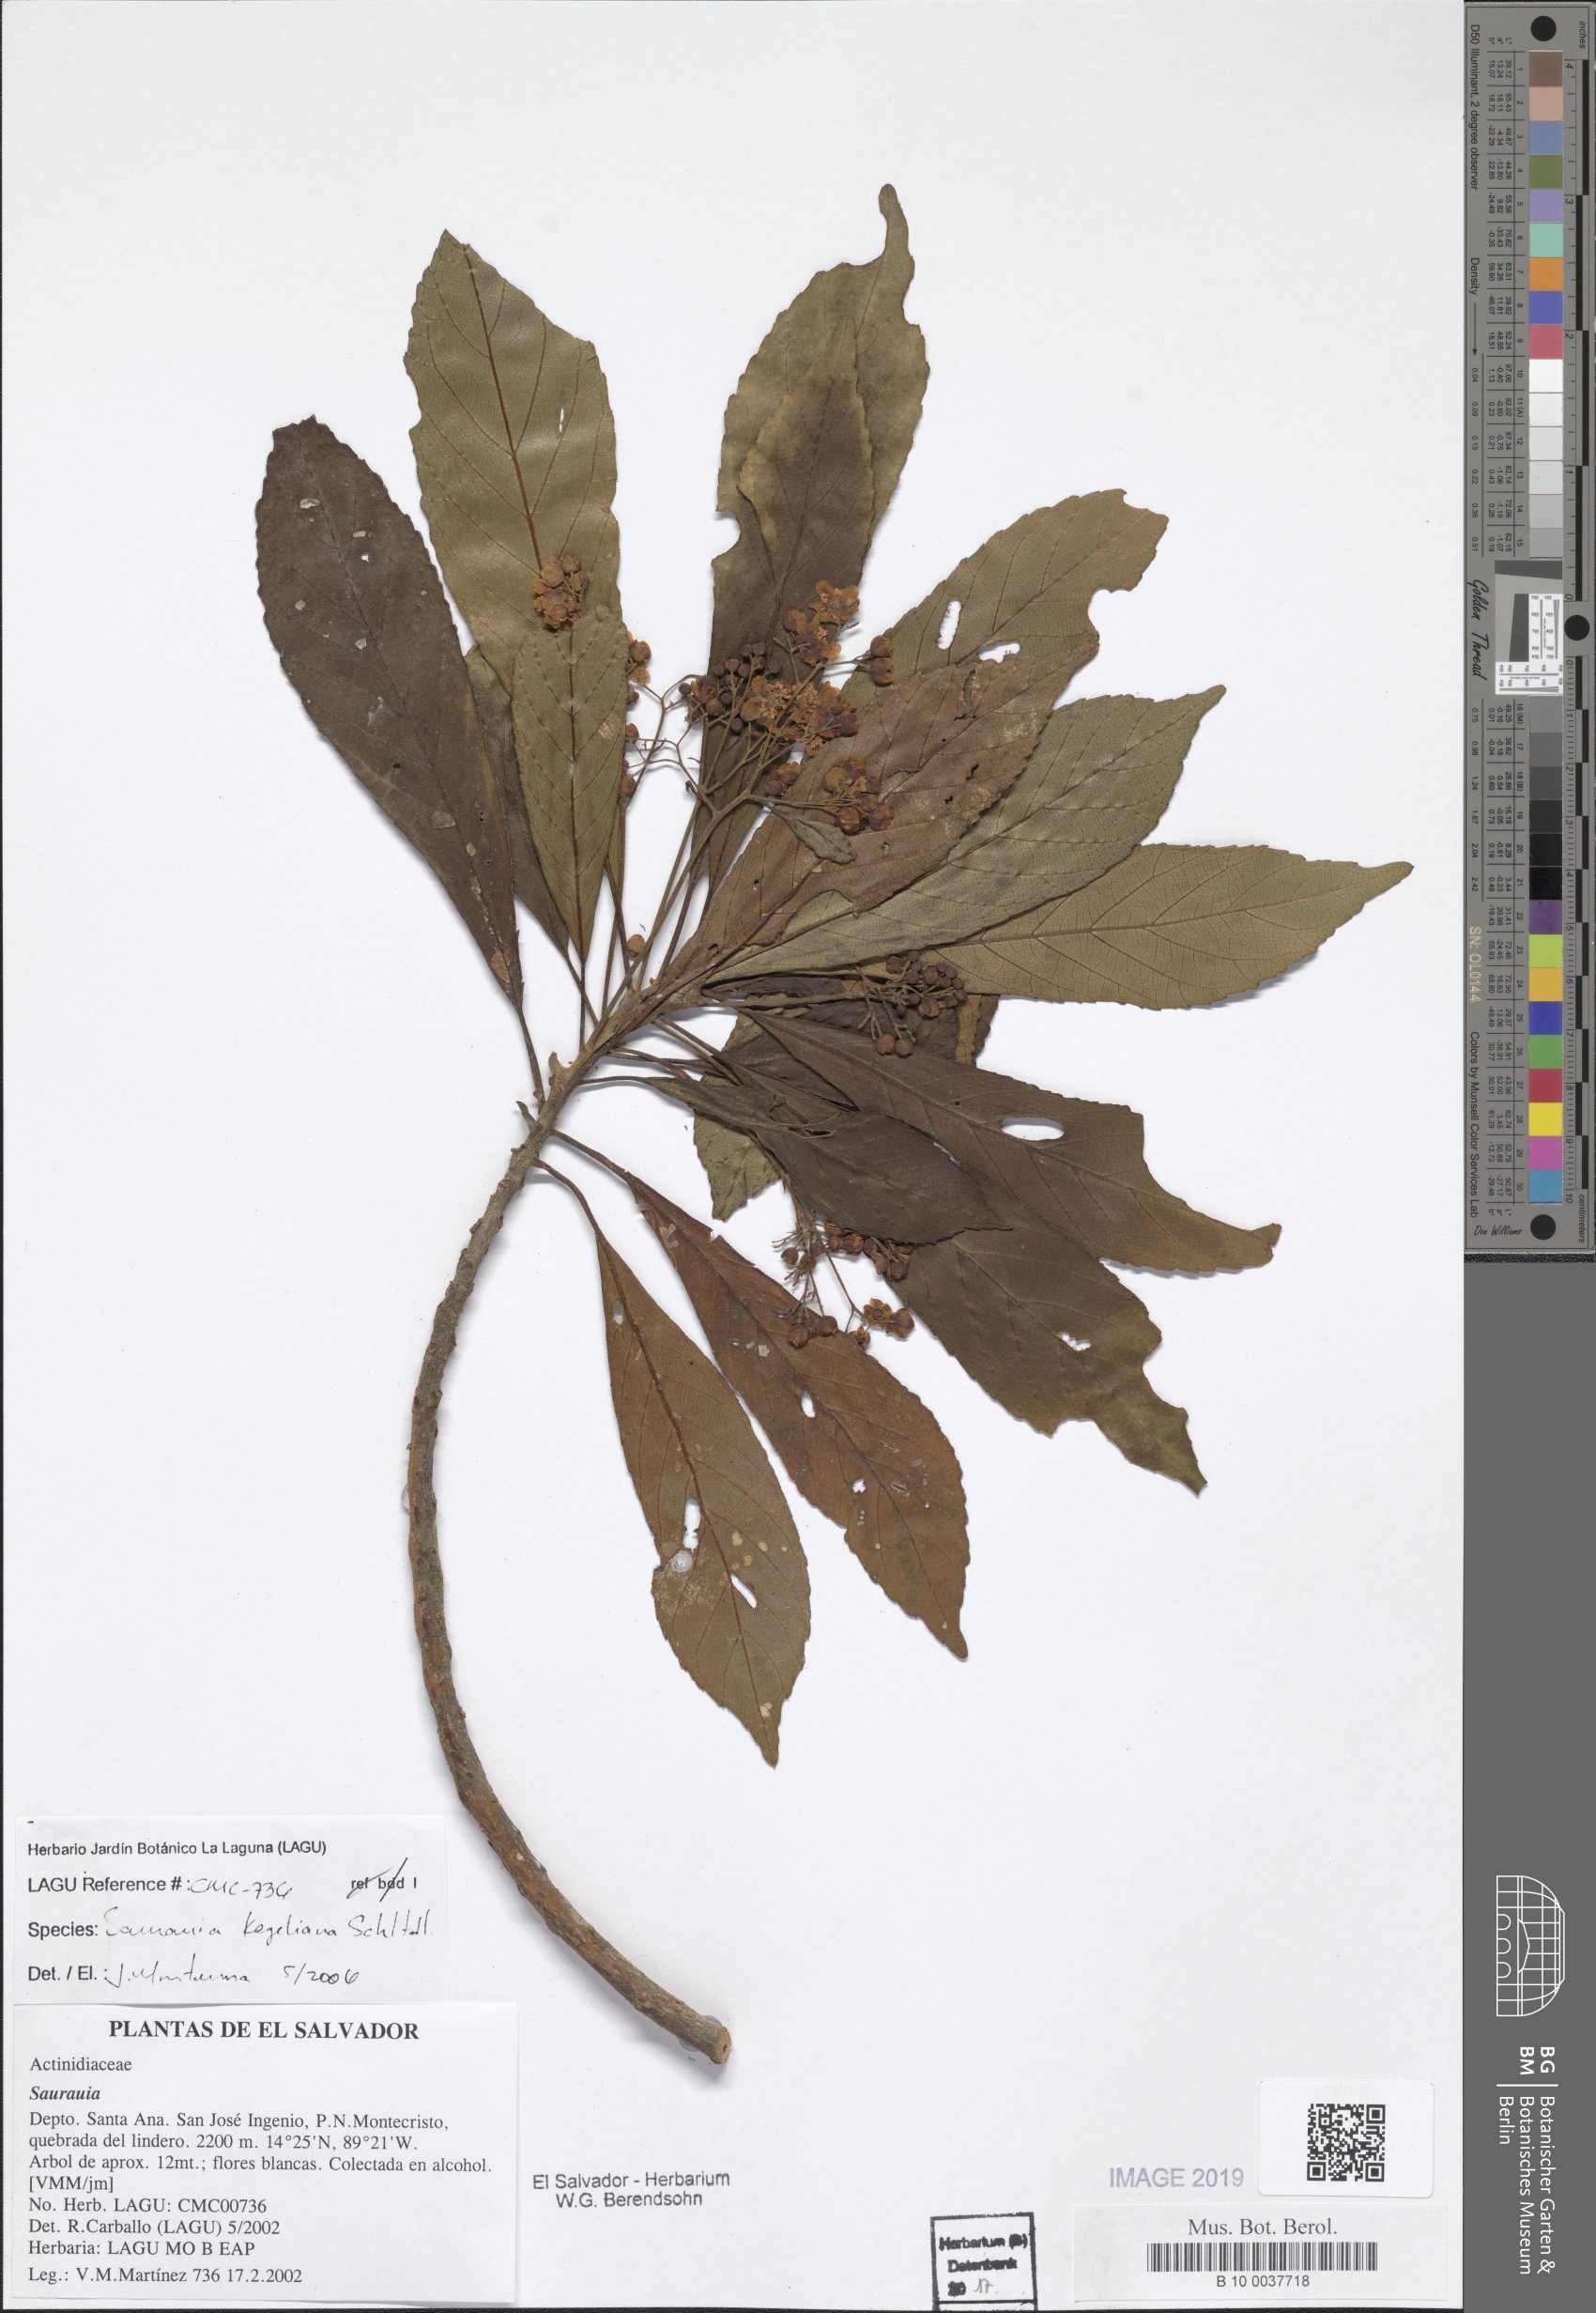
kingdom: Plantae
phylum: Tracheophyta
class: Magnoliopsida
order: Ericales
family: Actinidiaceae
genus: Saurauia
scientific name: Saurauia kegeliana
